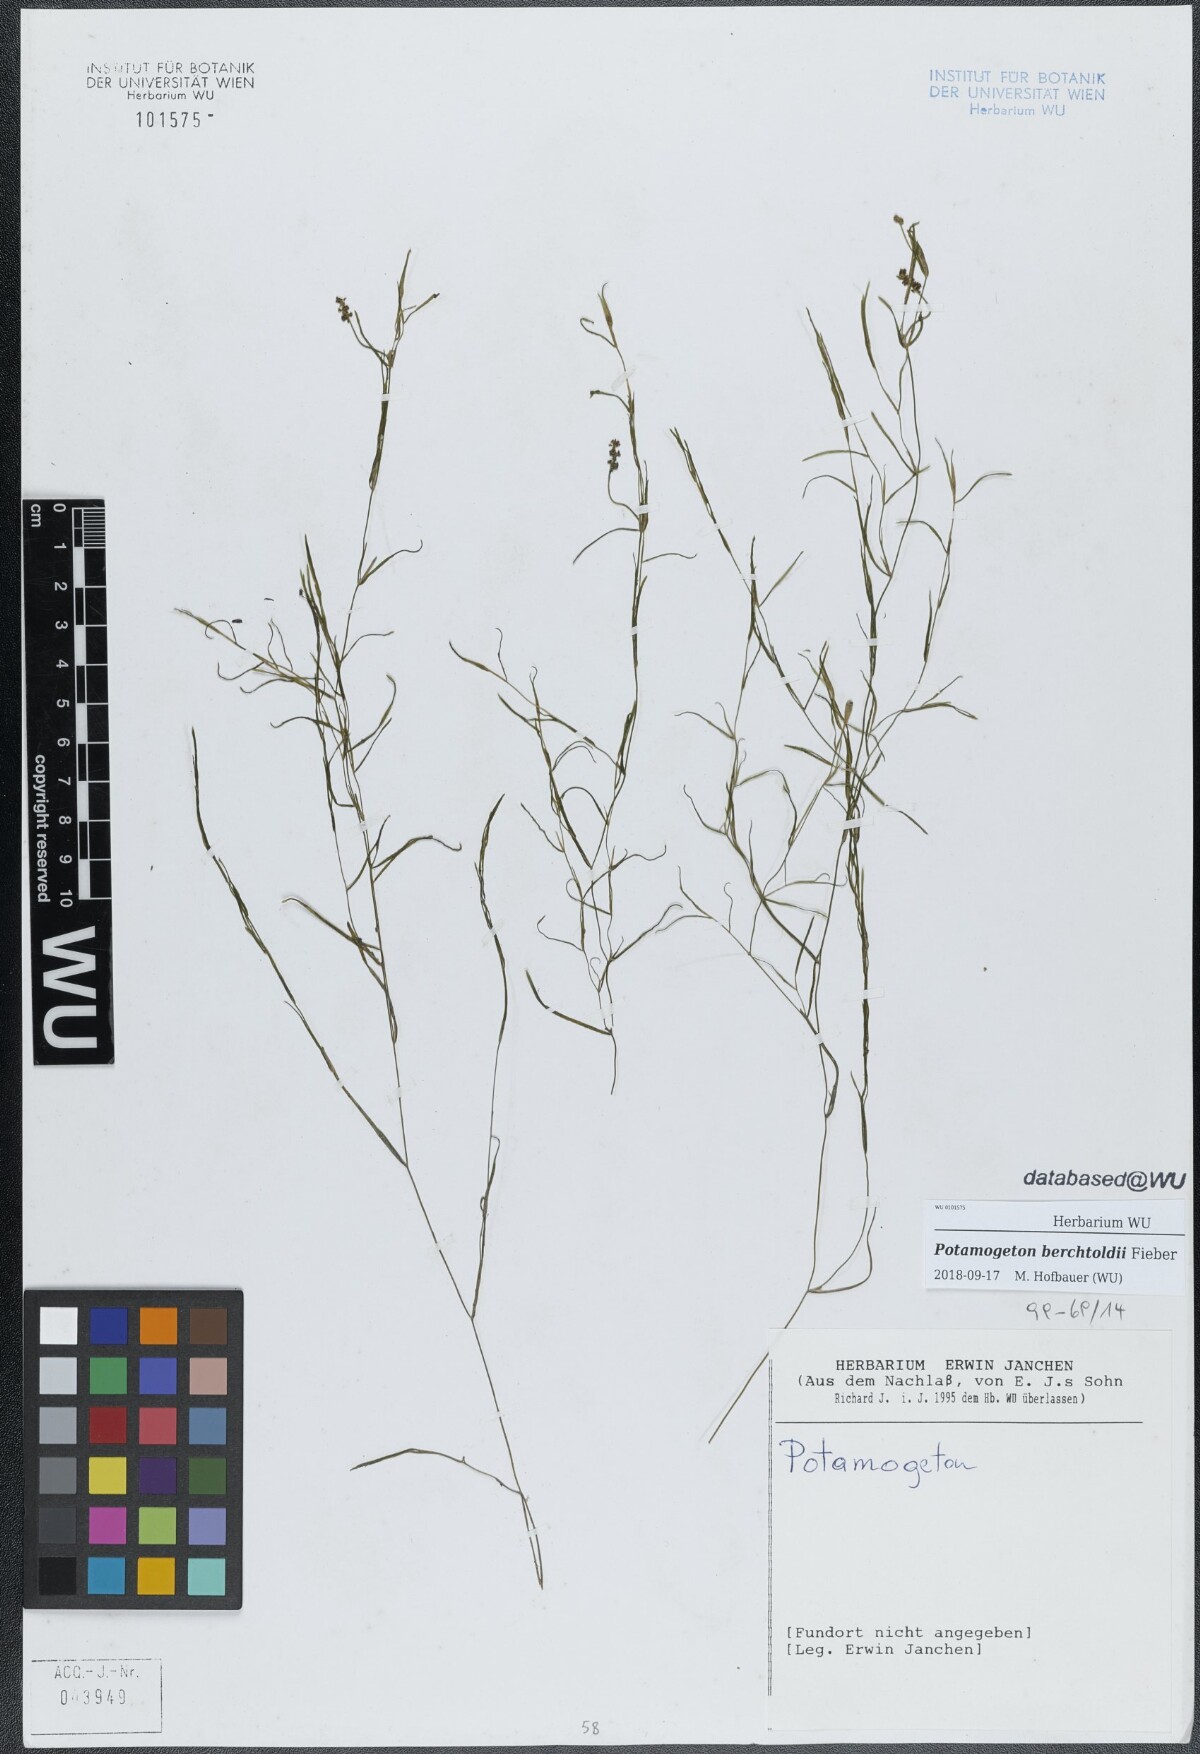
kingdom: Plantae
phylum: Tracheophyta
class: Liliopsida
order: Alismatales
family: Potamogetonaceae
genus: Potamogeton
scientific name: Potamogeton berchtoldii
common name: Small pondweed
